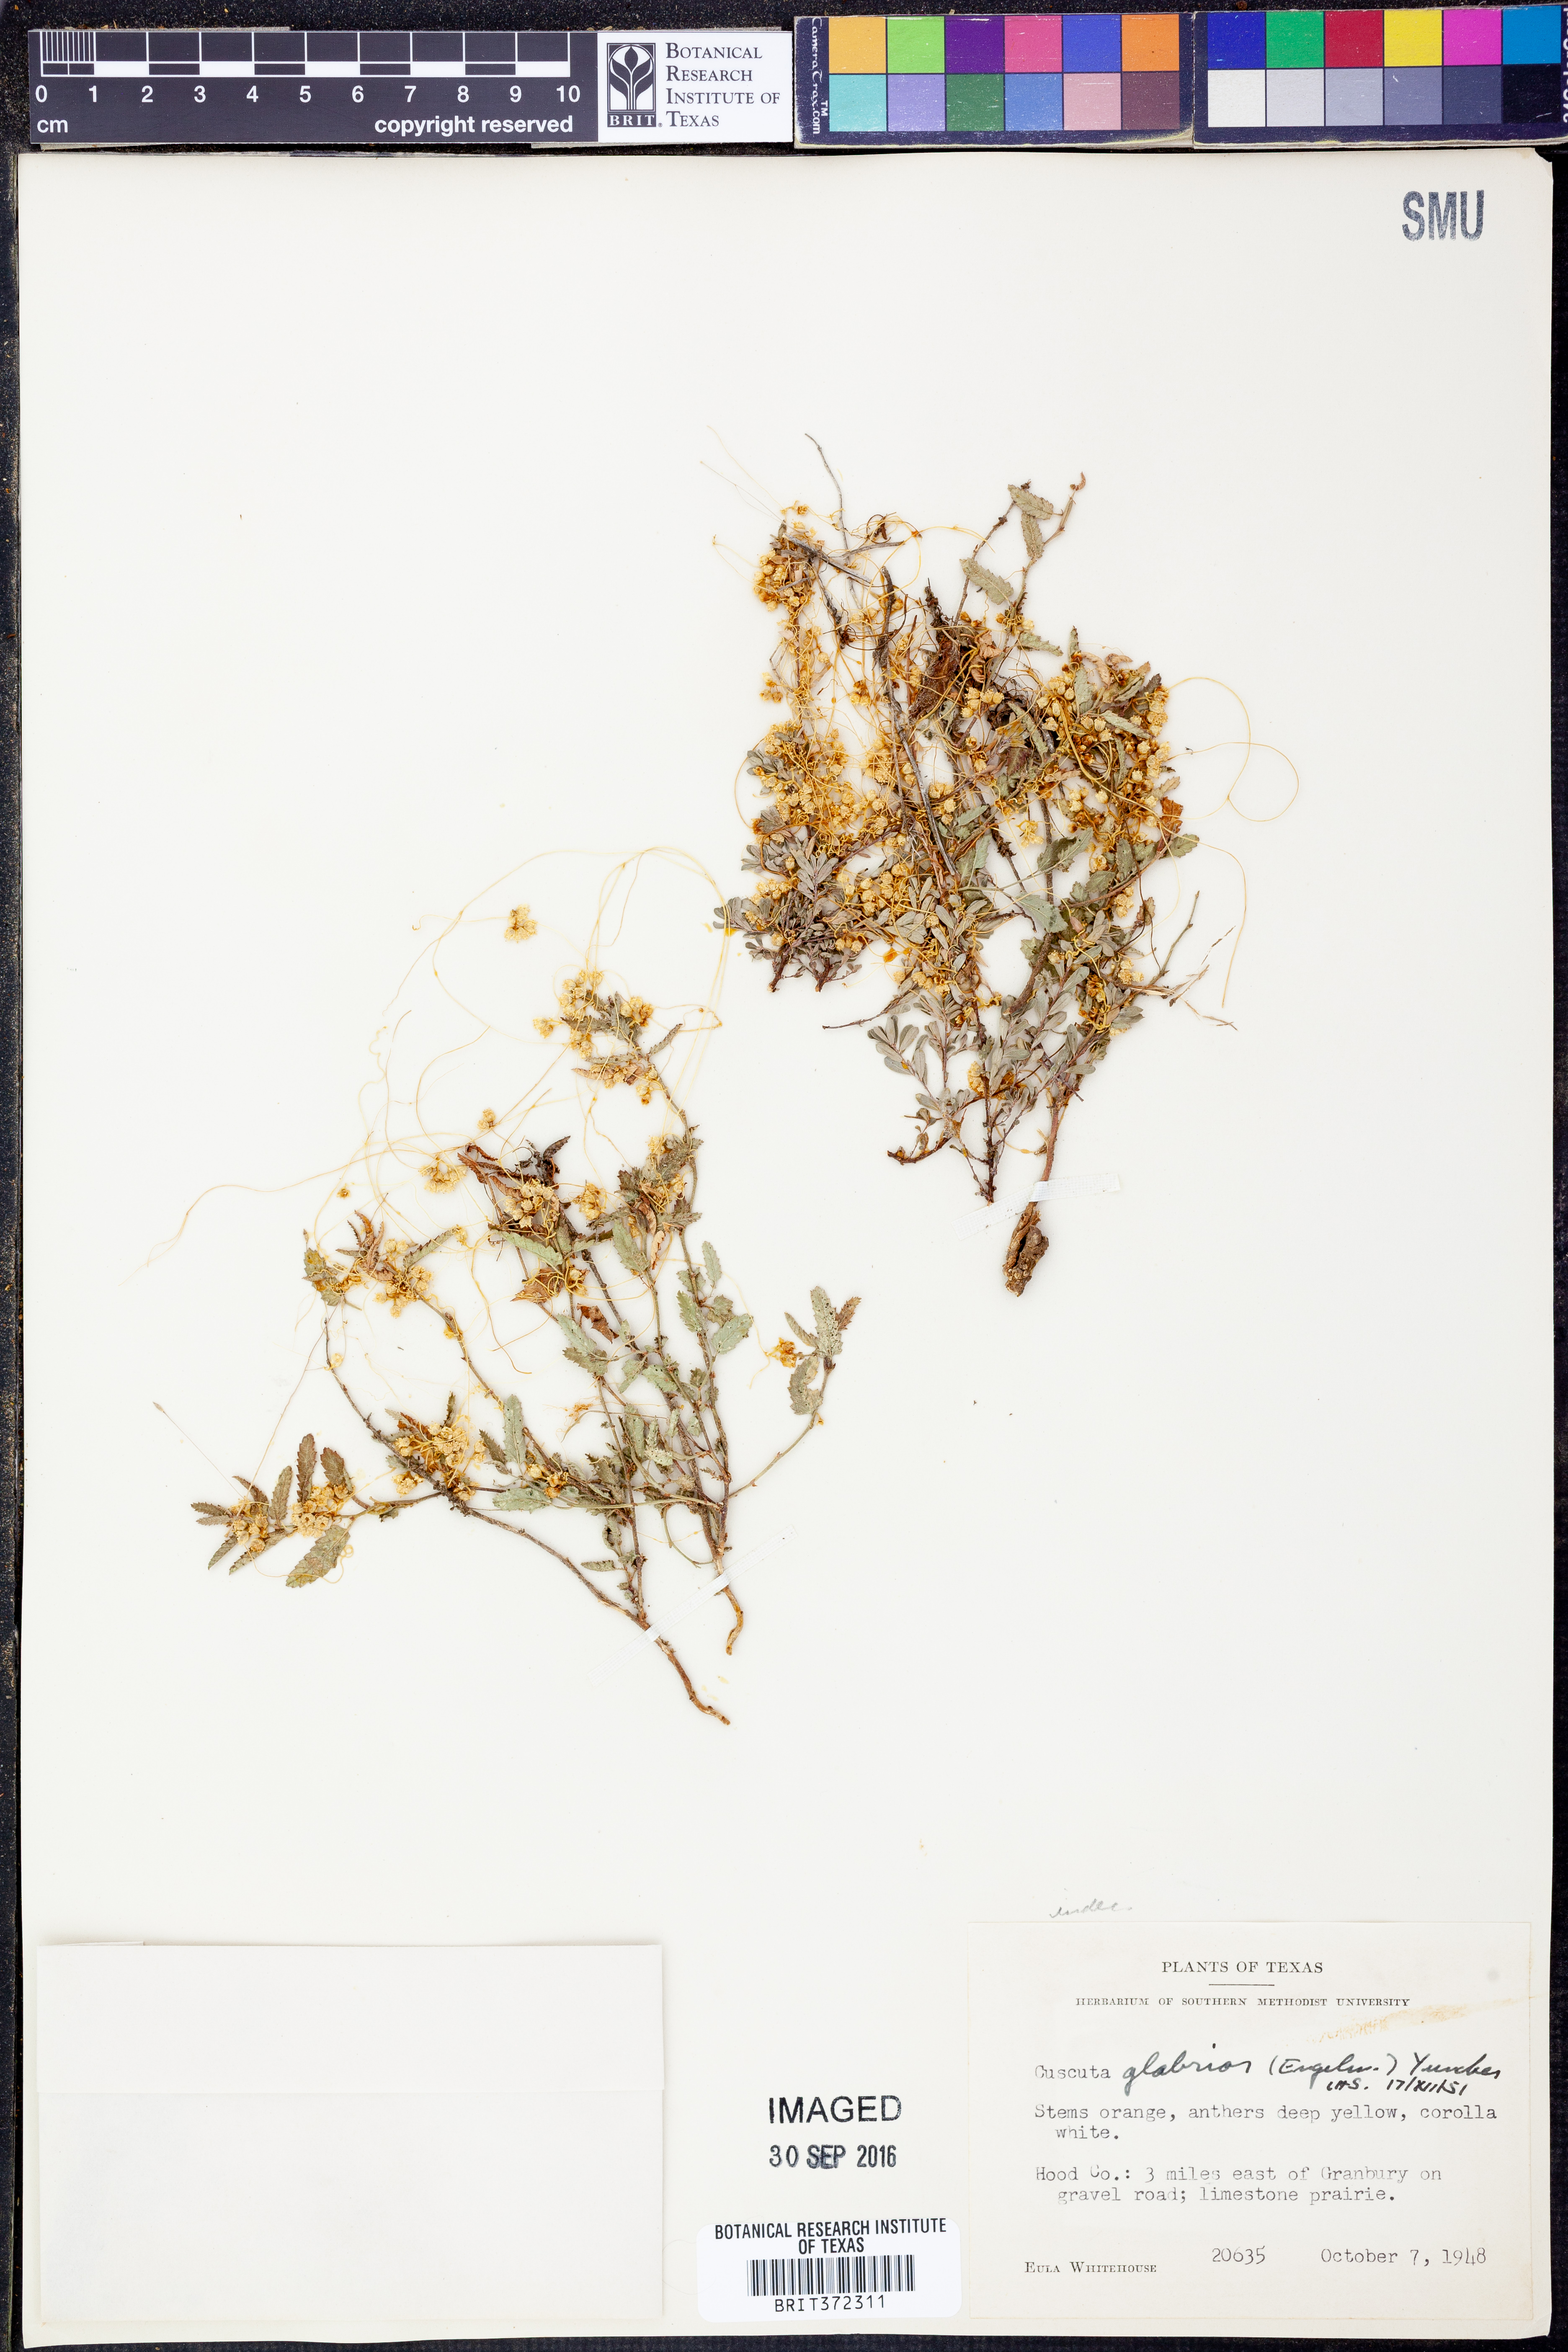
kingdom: Plantae
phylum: Tracheophyta
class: Magnoliopsida
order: Solanales
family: Convolvulaceae
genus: Cuscuta
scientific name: Cuscuta glabrior
